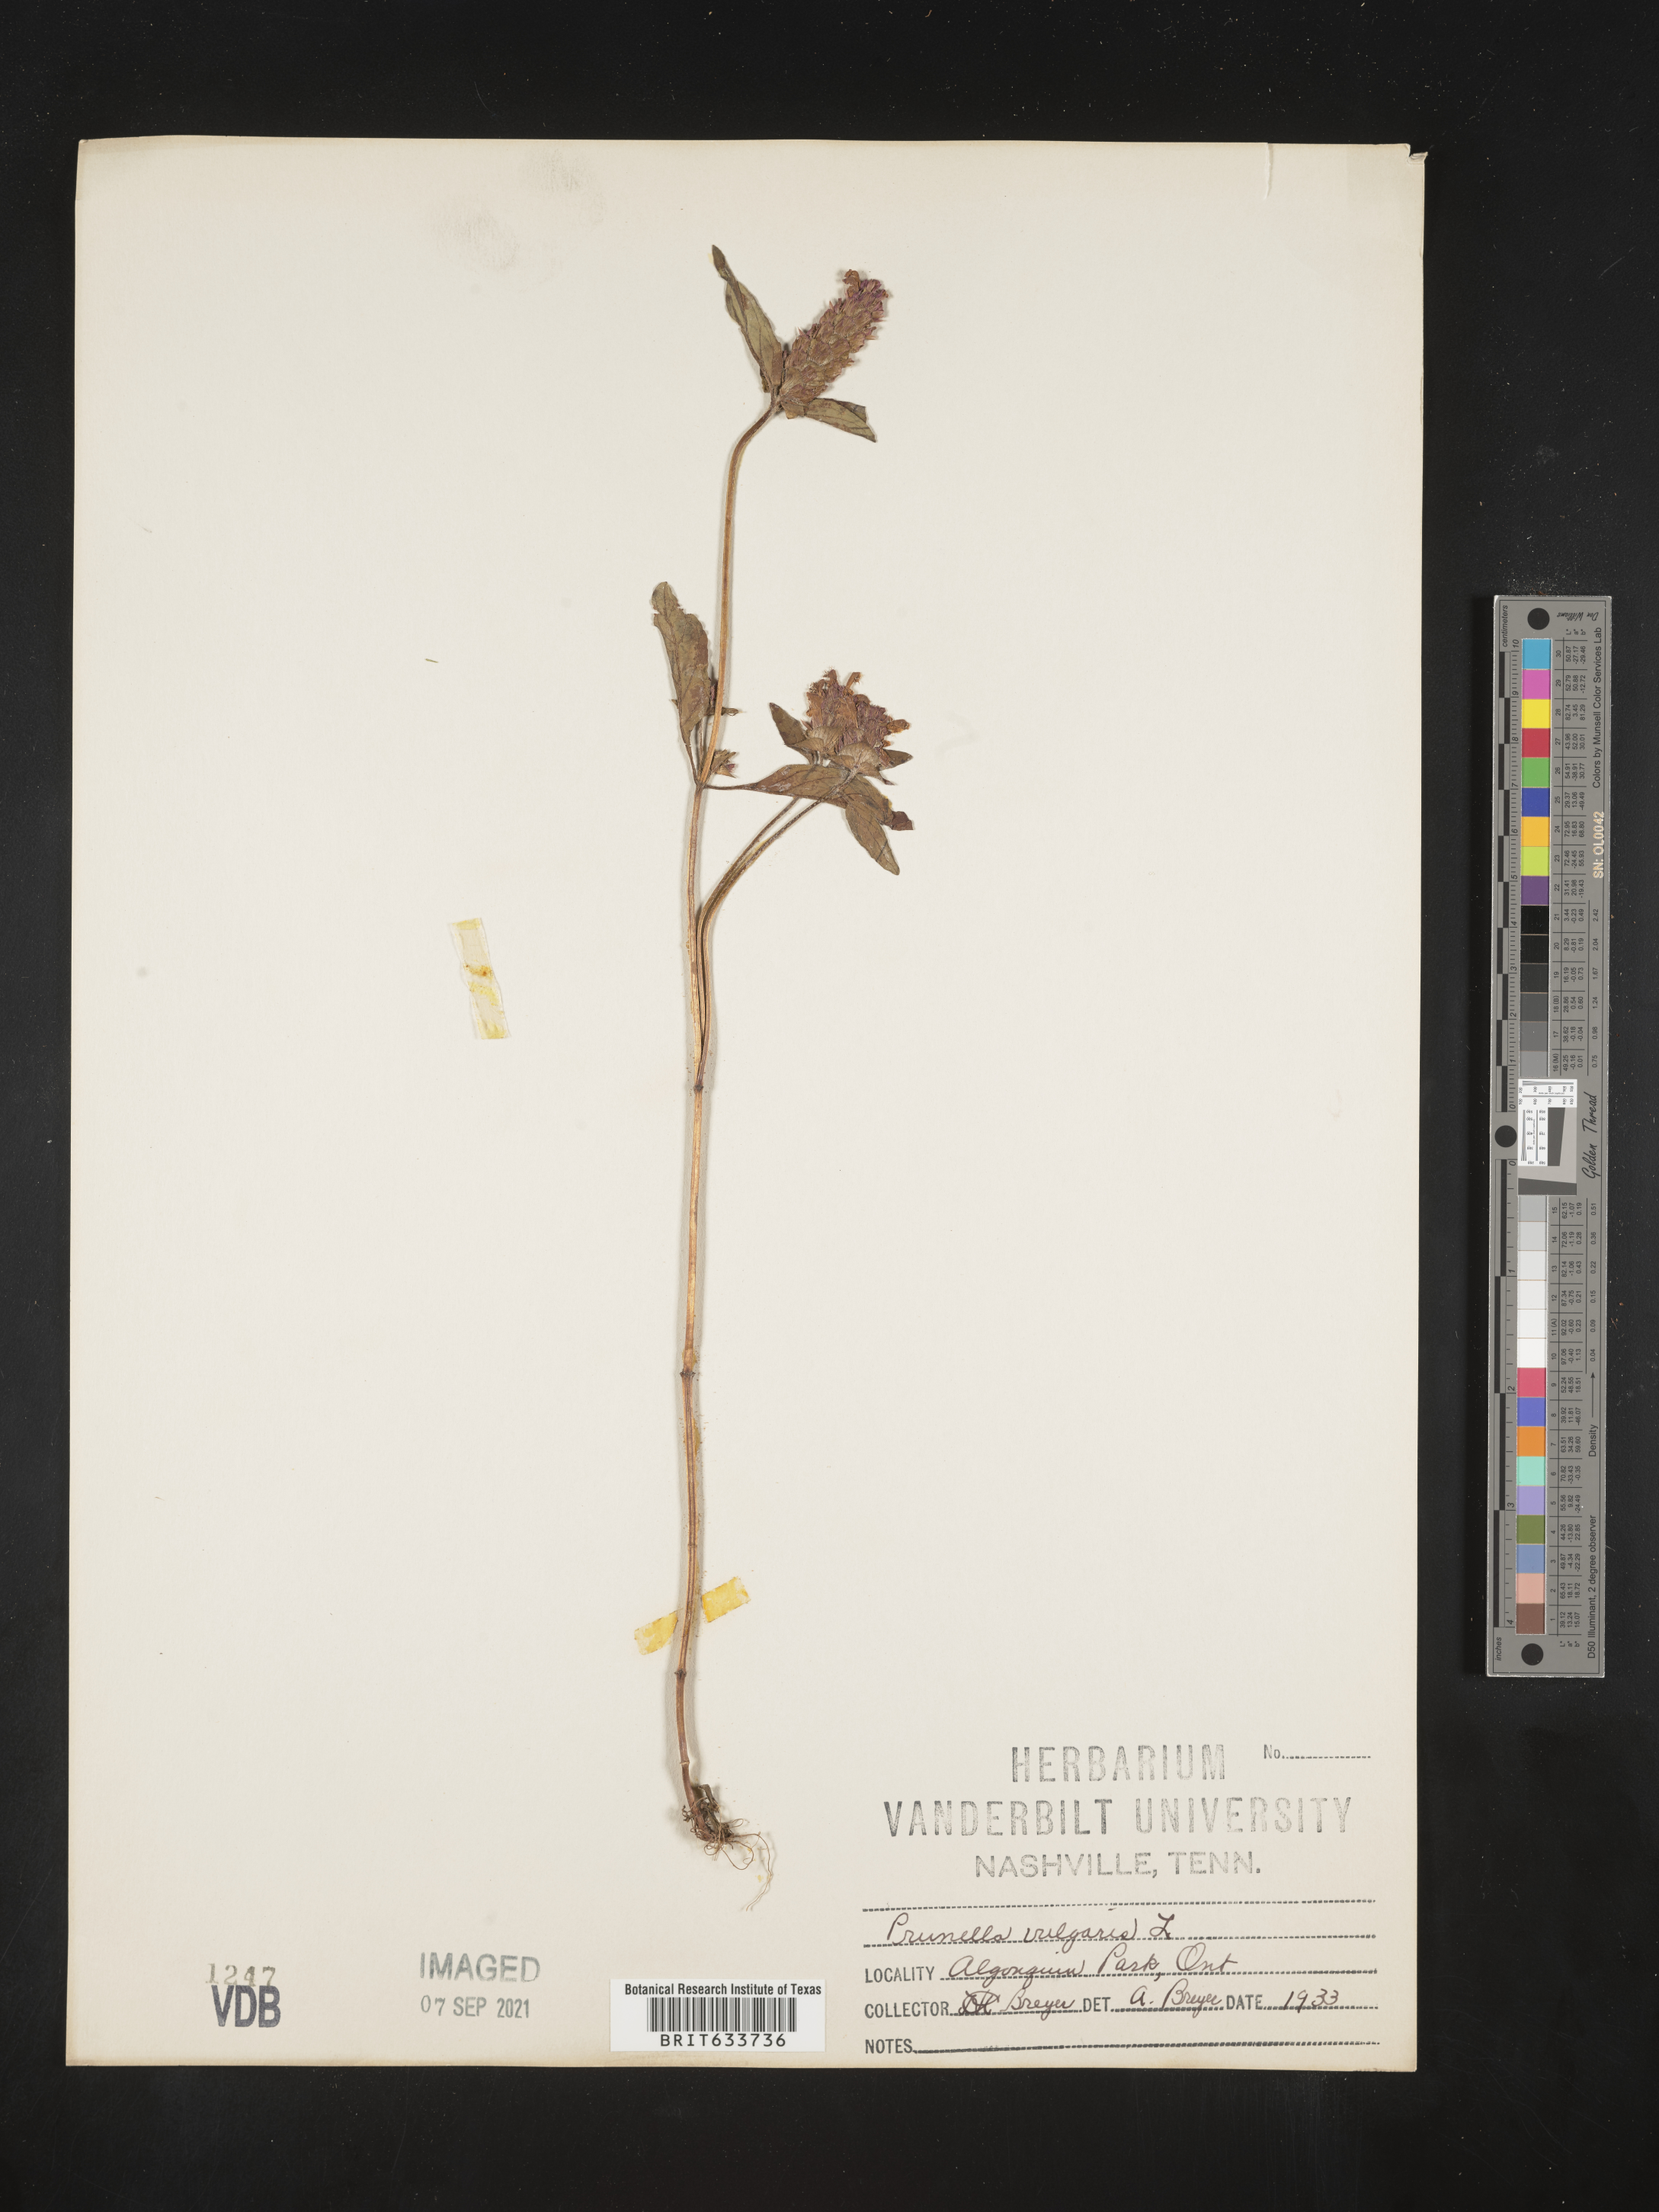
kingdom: Plantae
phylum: Tracheophyta
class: Magnoliopsida
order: Lamiales
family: Lamiaceae
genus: Prunella
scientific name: Prunella
